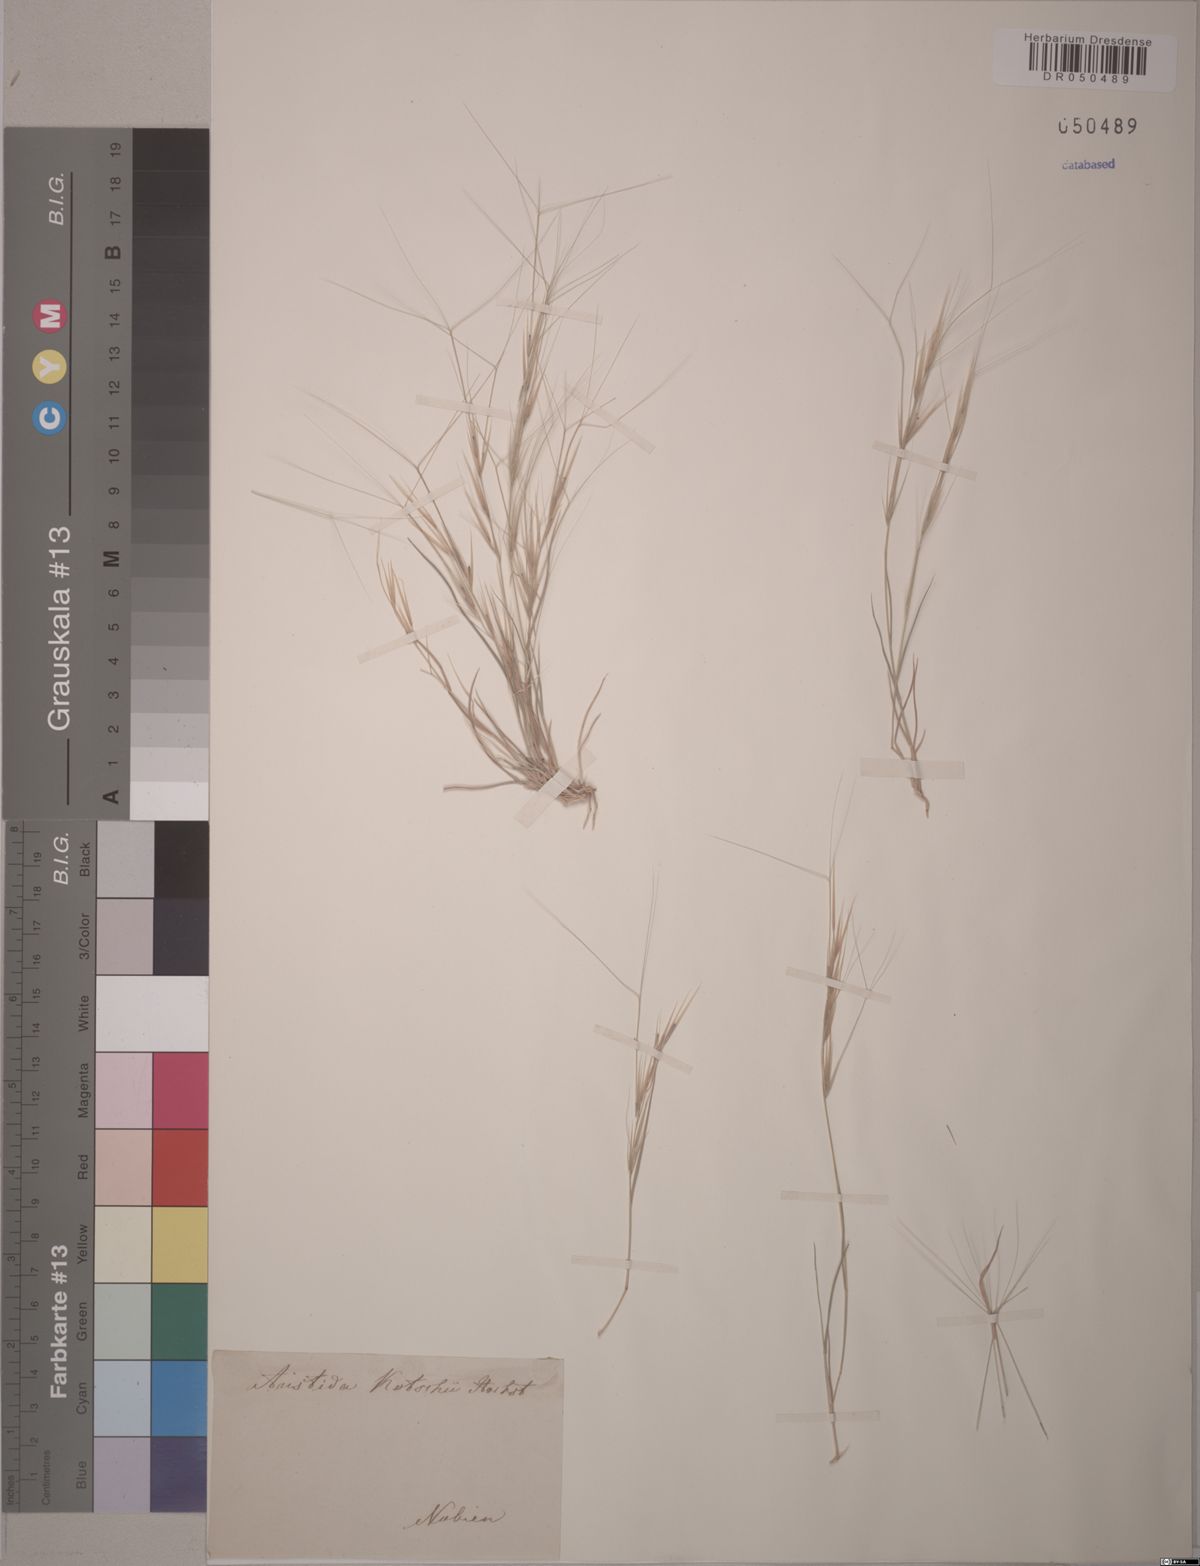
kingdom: Plantae
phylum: Tracheophyta
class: Liliopsida
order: Poales
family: Poaceae
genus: Aristida
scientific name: Aristida funiculata
